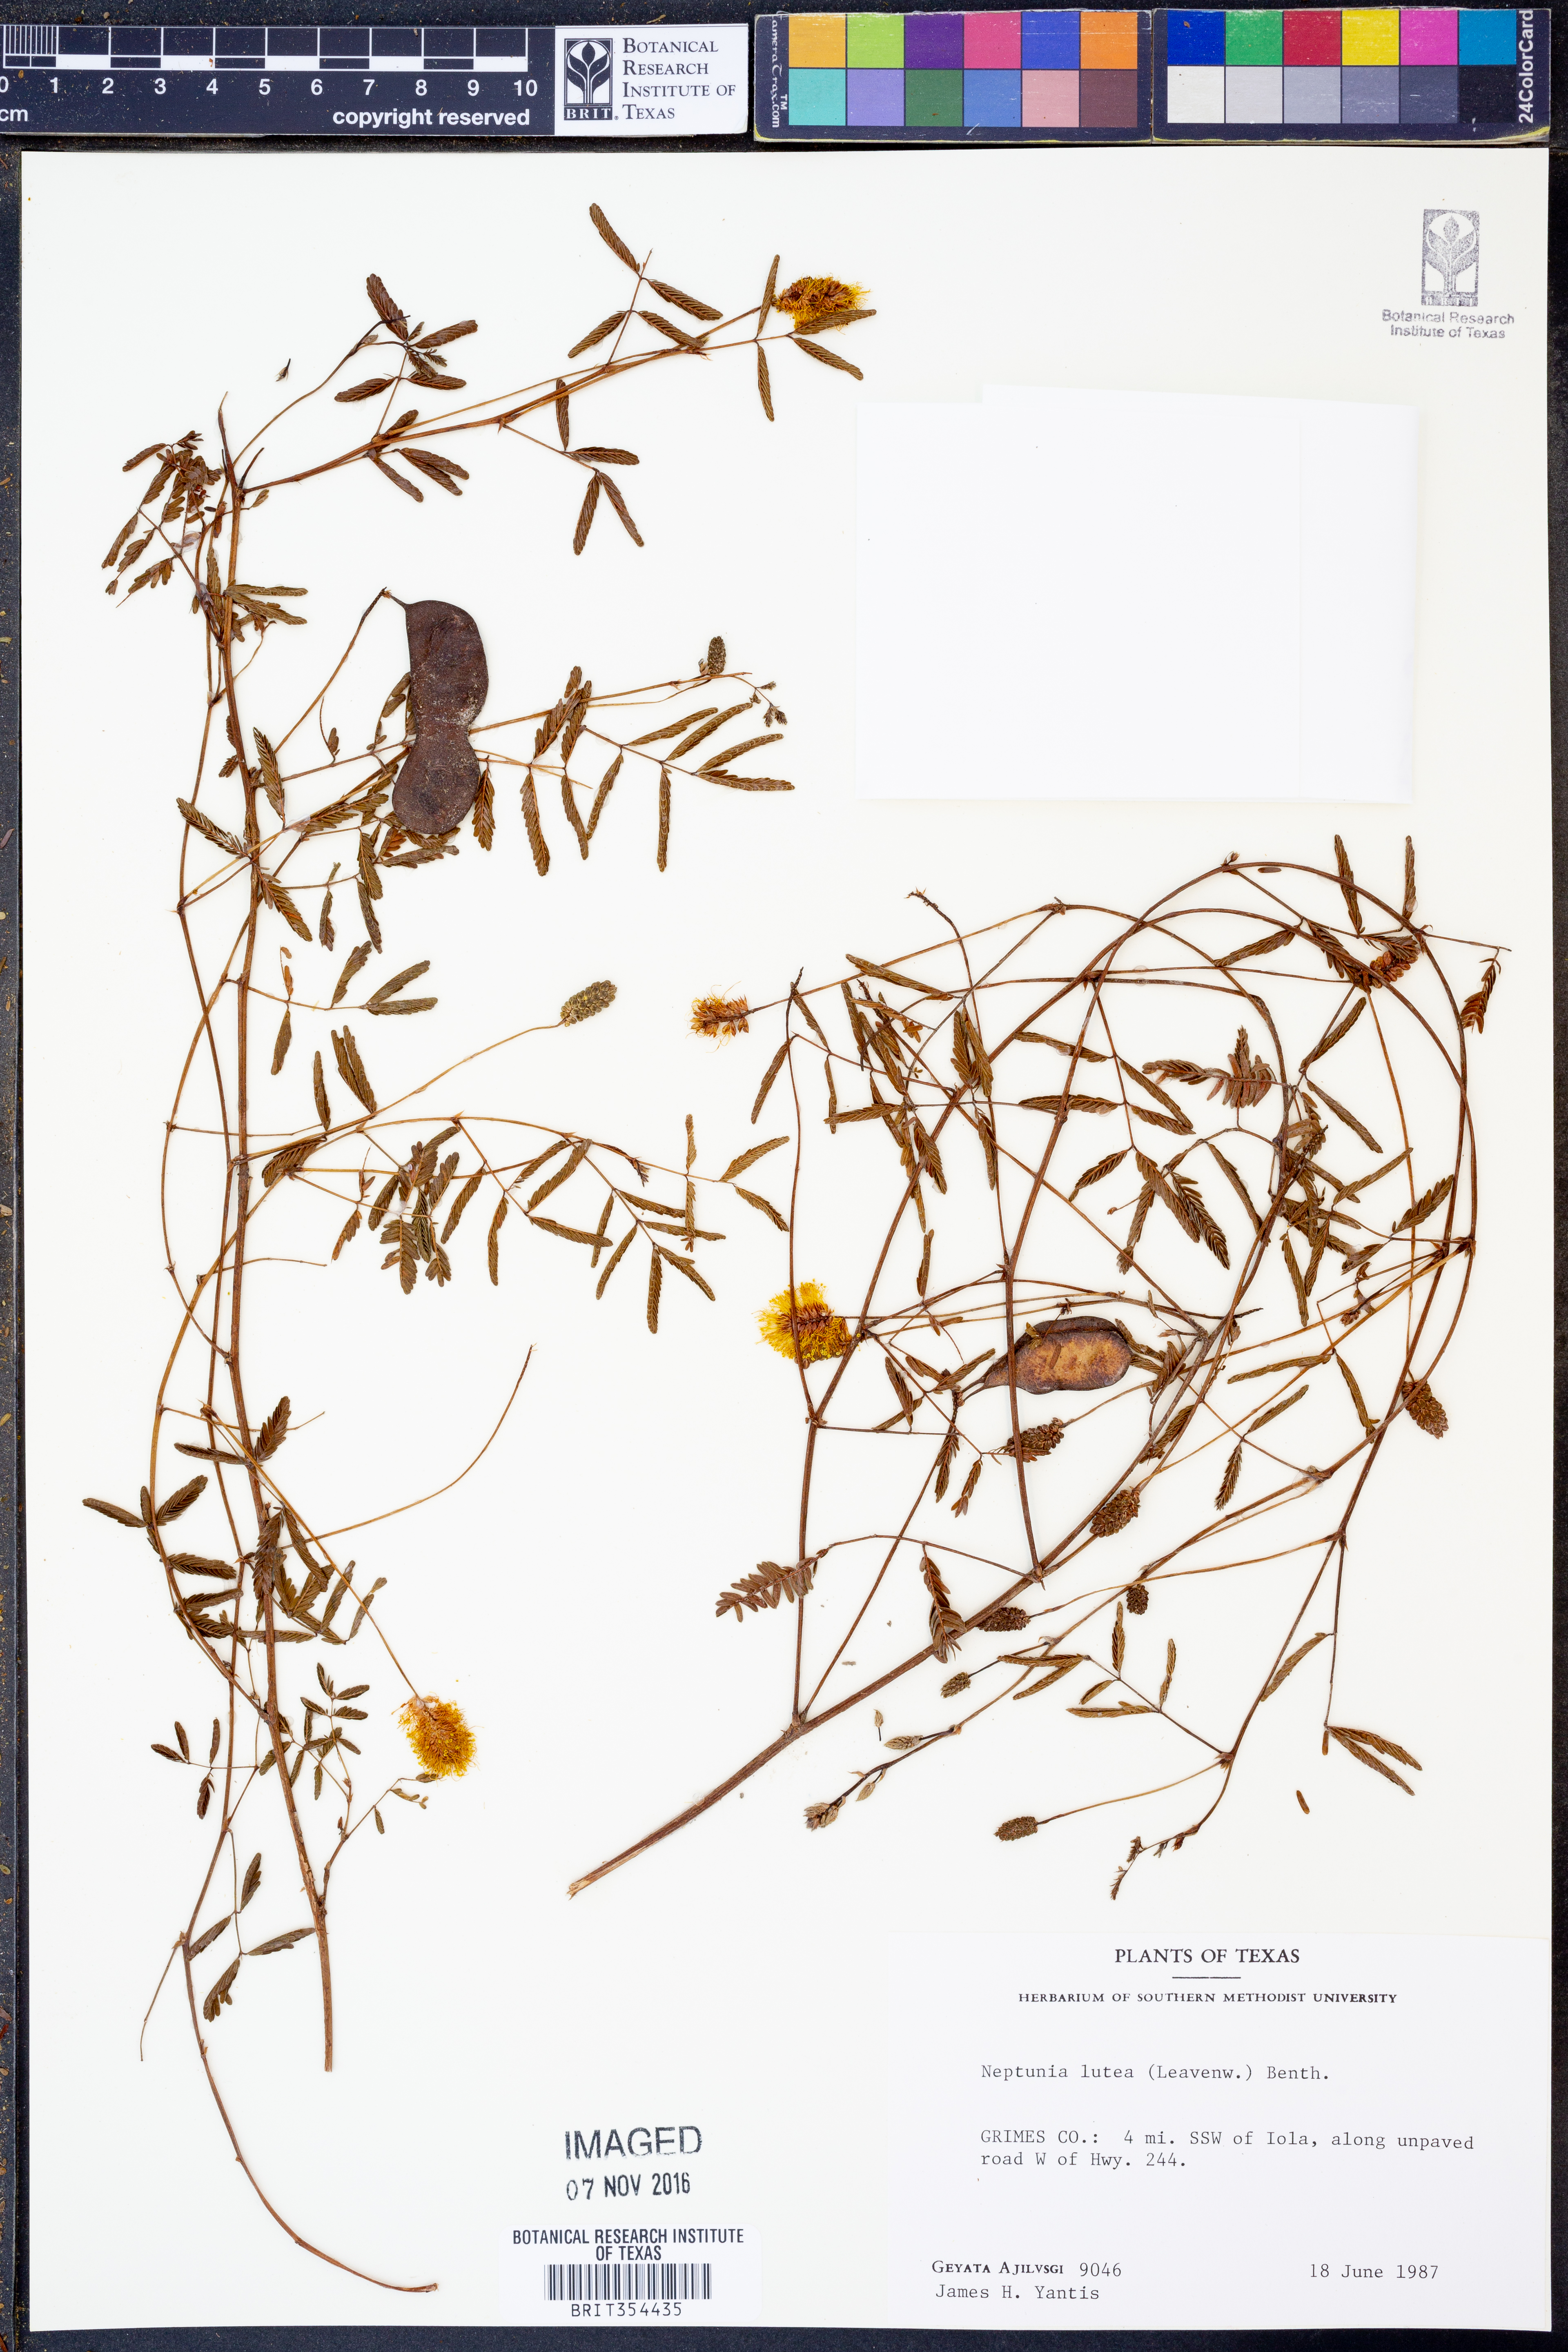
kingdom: Plantae
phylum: Tracheophyta
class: Magnoliopsida
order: Fabales
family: Fabaceae
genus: Neptunia
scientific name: Neptunia lutea
